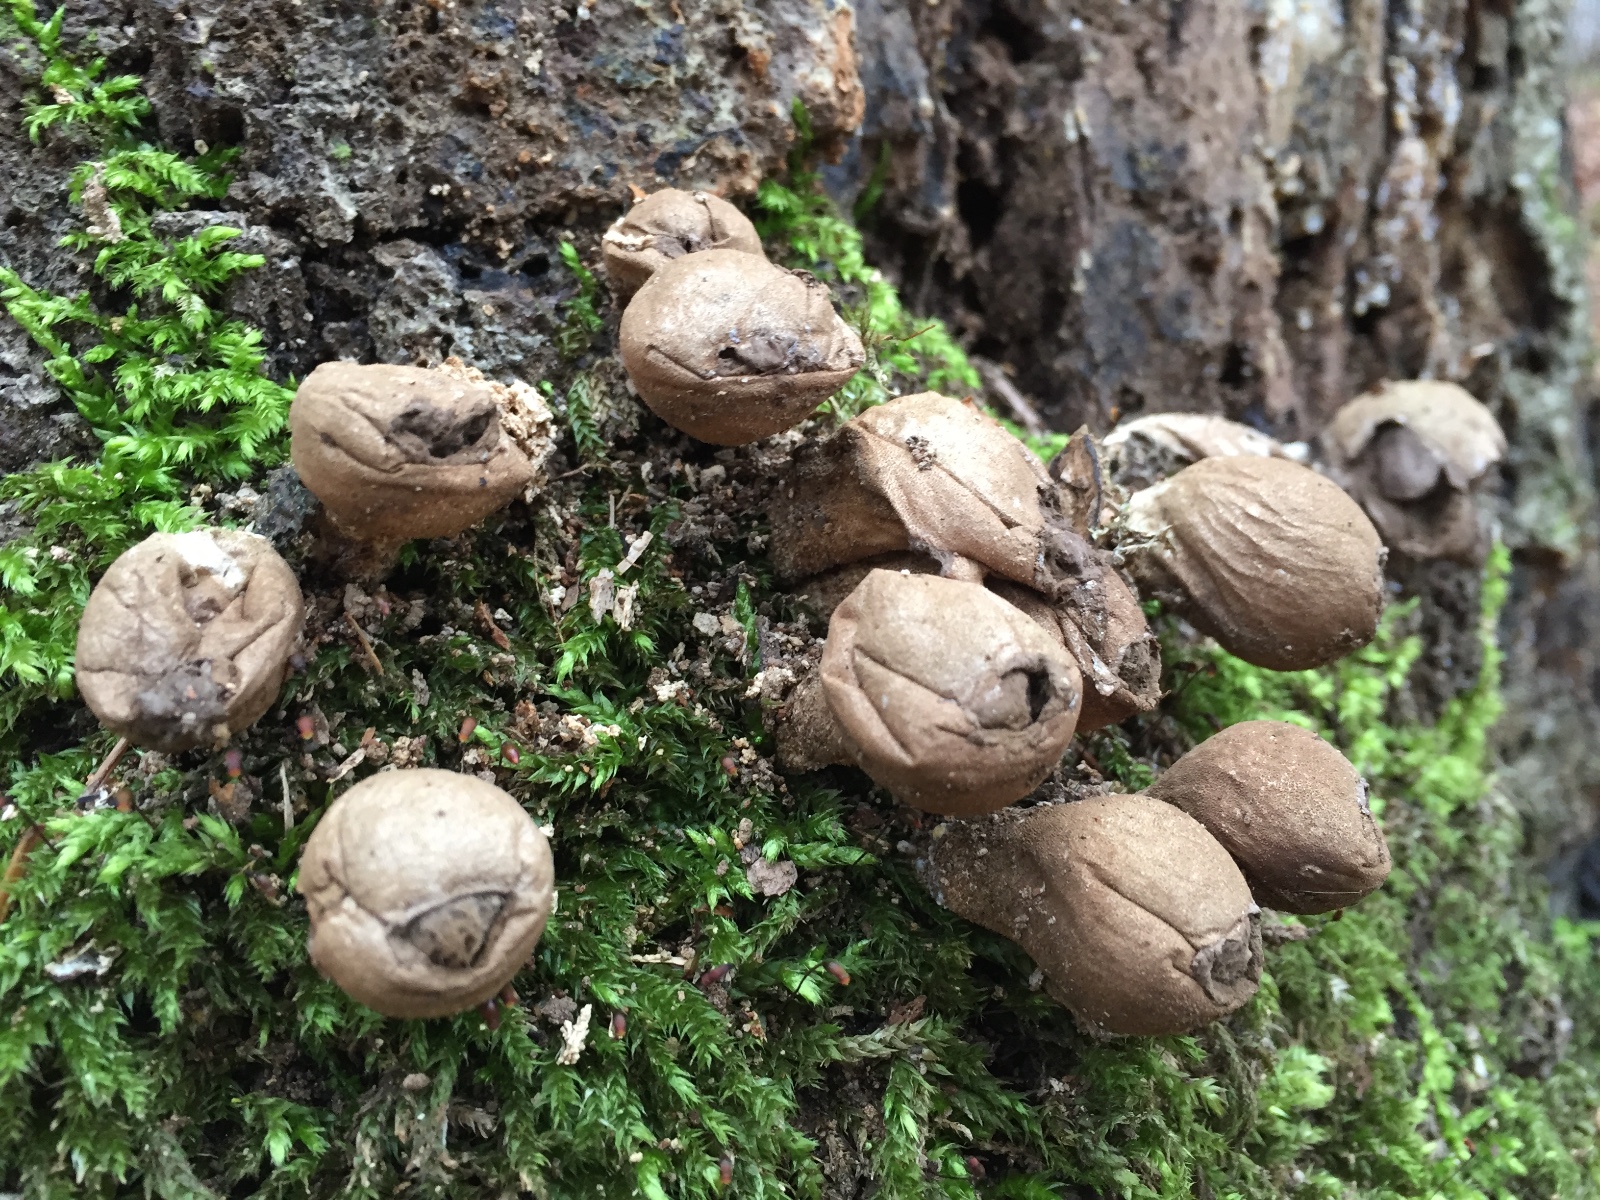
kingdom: Fungi
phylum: Basidiomycota
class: Agaricomycetes
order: Agaricales
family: Lycoperdaceae
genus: Apioperdon
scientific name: Apioperdon pyriforme
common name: pære-støvbold
